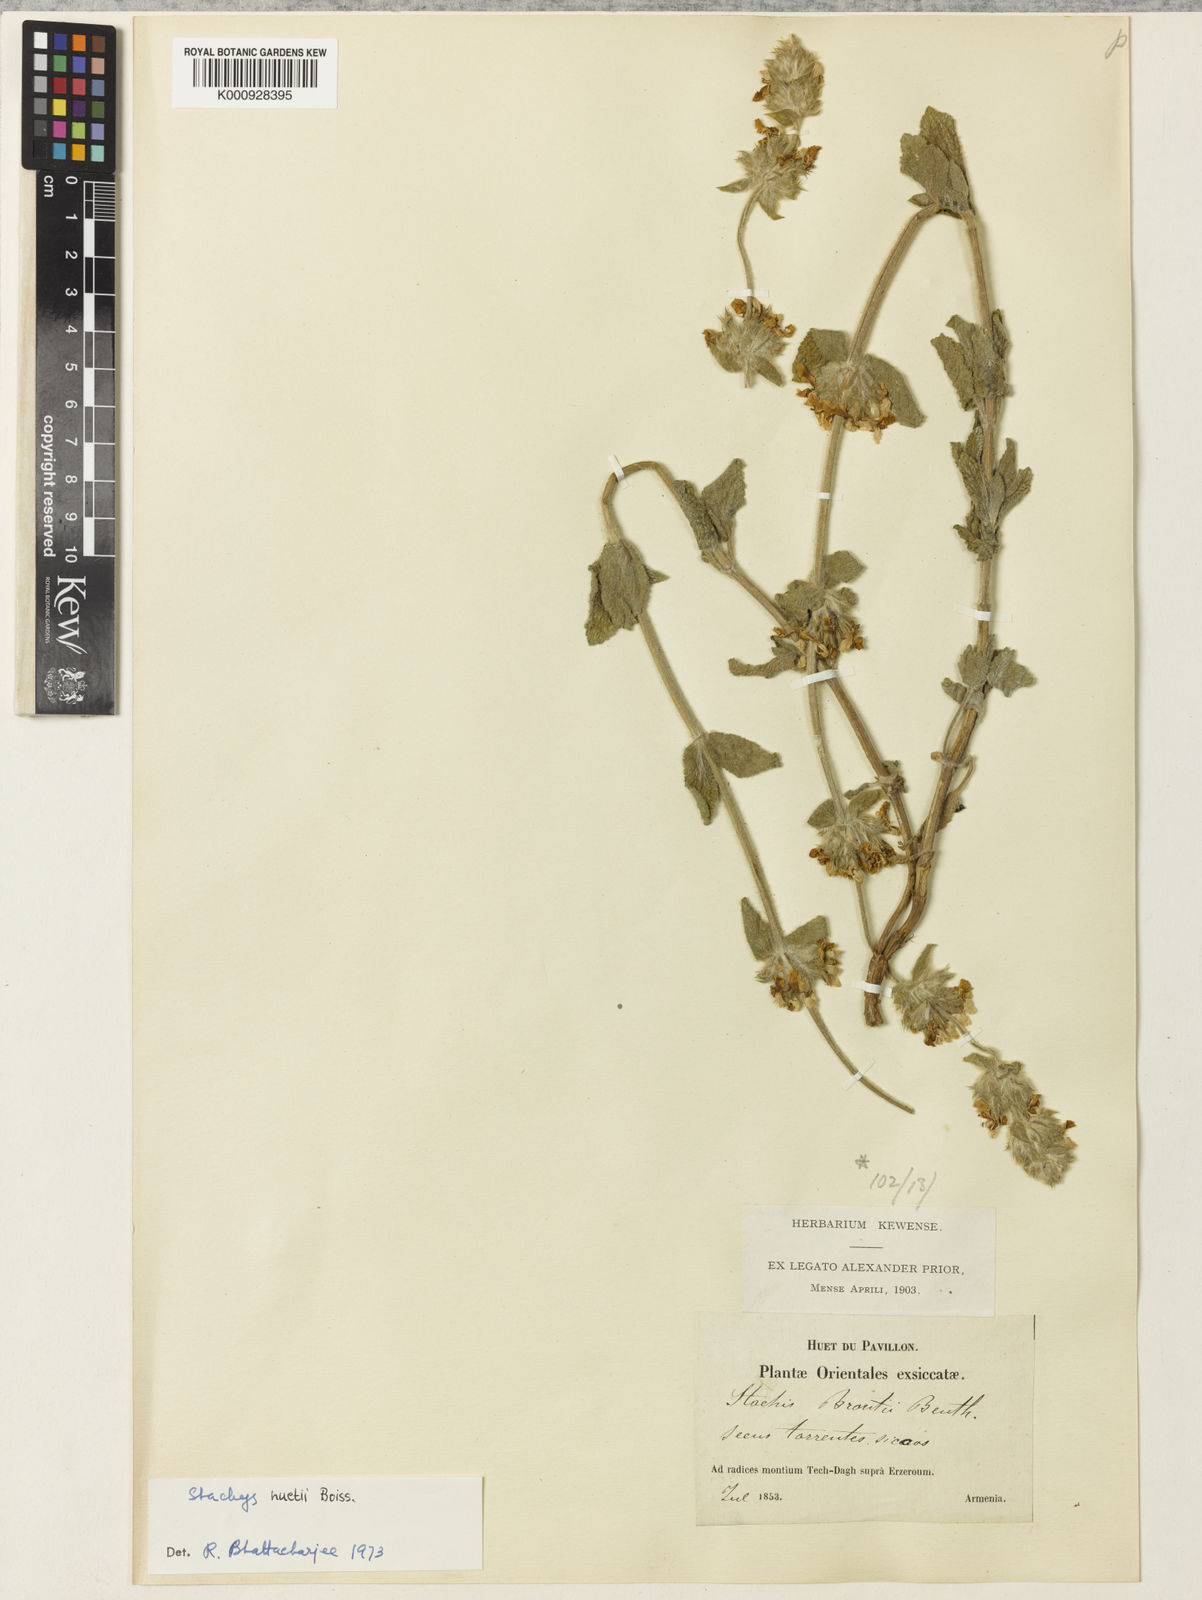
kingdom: Plantae
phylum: Tracheophyta
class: Magnoliopsida
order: Lamiales
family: Lamiaceae
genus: Stachys
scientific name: Stachys huetii
